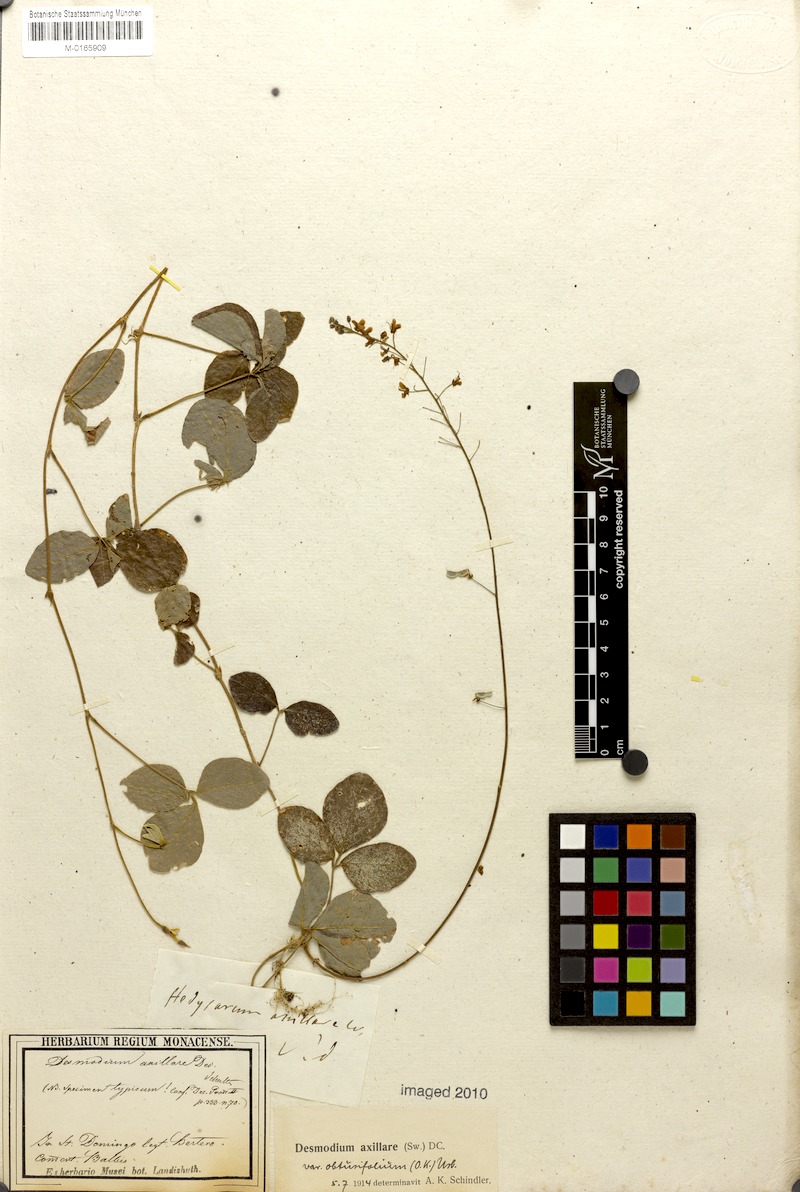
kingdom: Plantae
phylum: Tracheophyta
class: Magnoliopsida
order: Fabales
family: Fabaceae
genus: Desmodium
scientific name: Desmodium axillare
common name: Wire with
